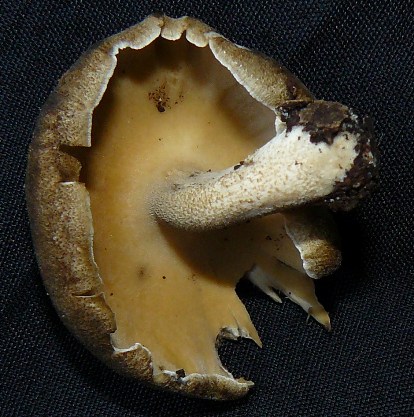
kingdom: Fungi
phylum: Basidiomycota
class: Agaricomycetes
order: Polyporales
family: Polyporaceae
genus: Lentinus
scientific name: Lentinus substrictus
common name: forårs-stilkporesvamp
